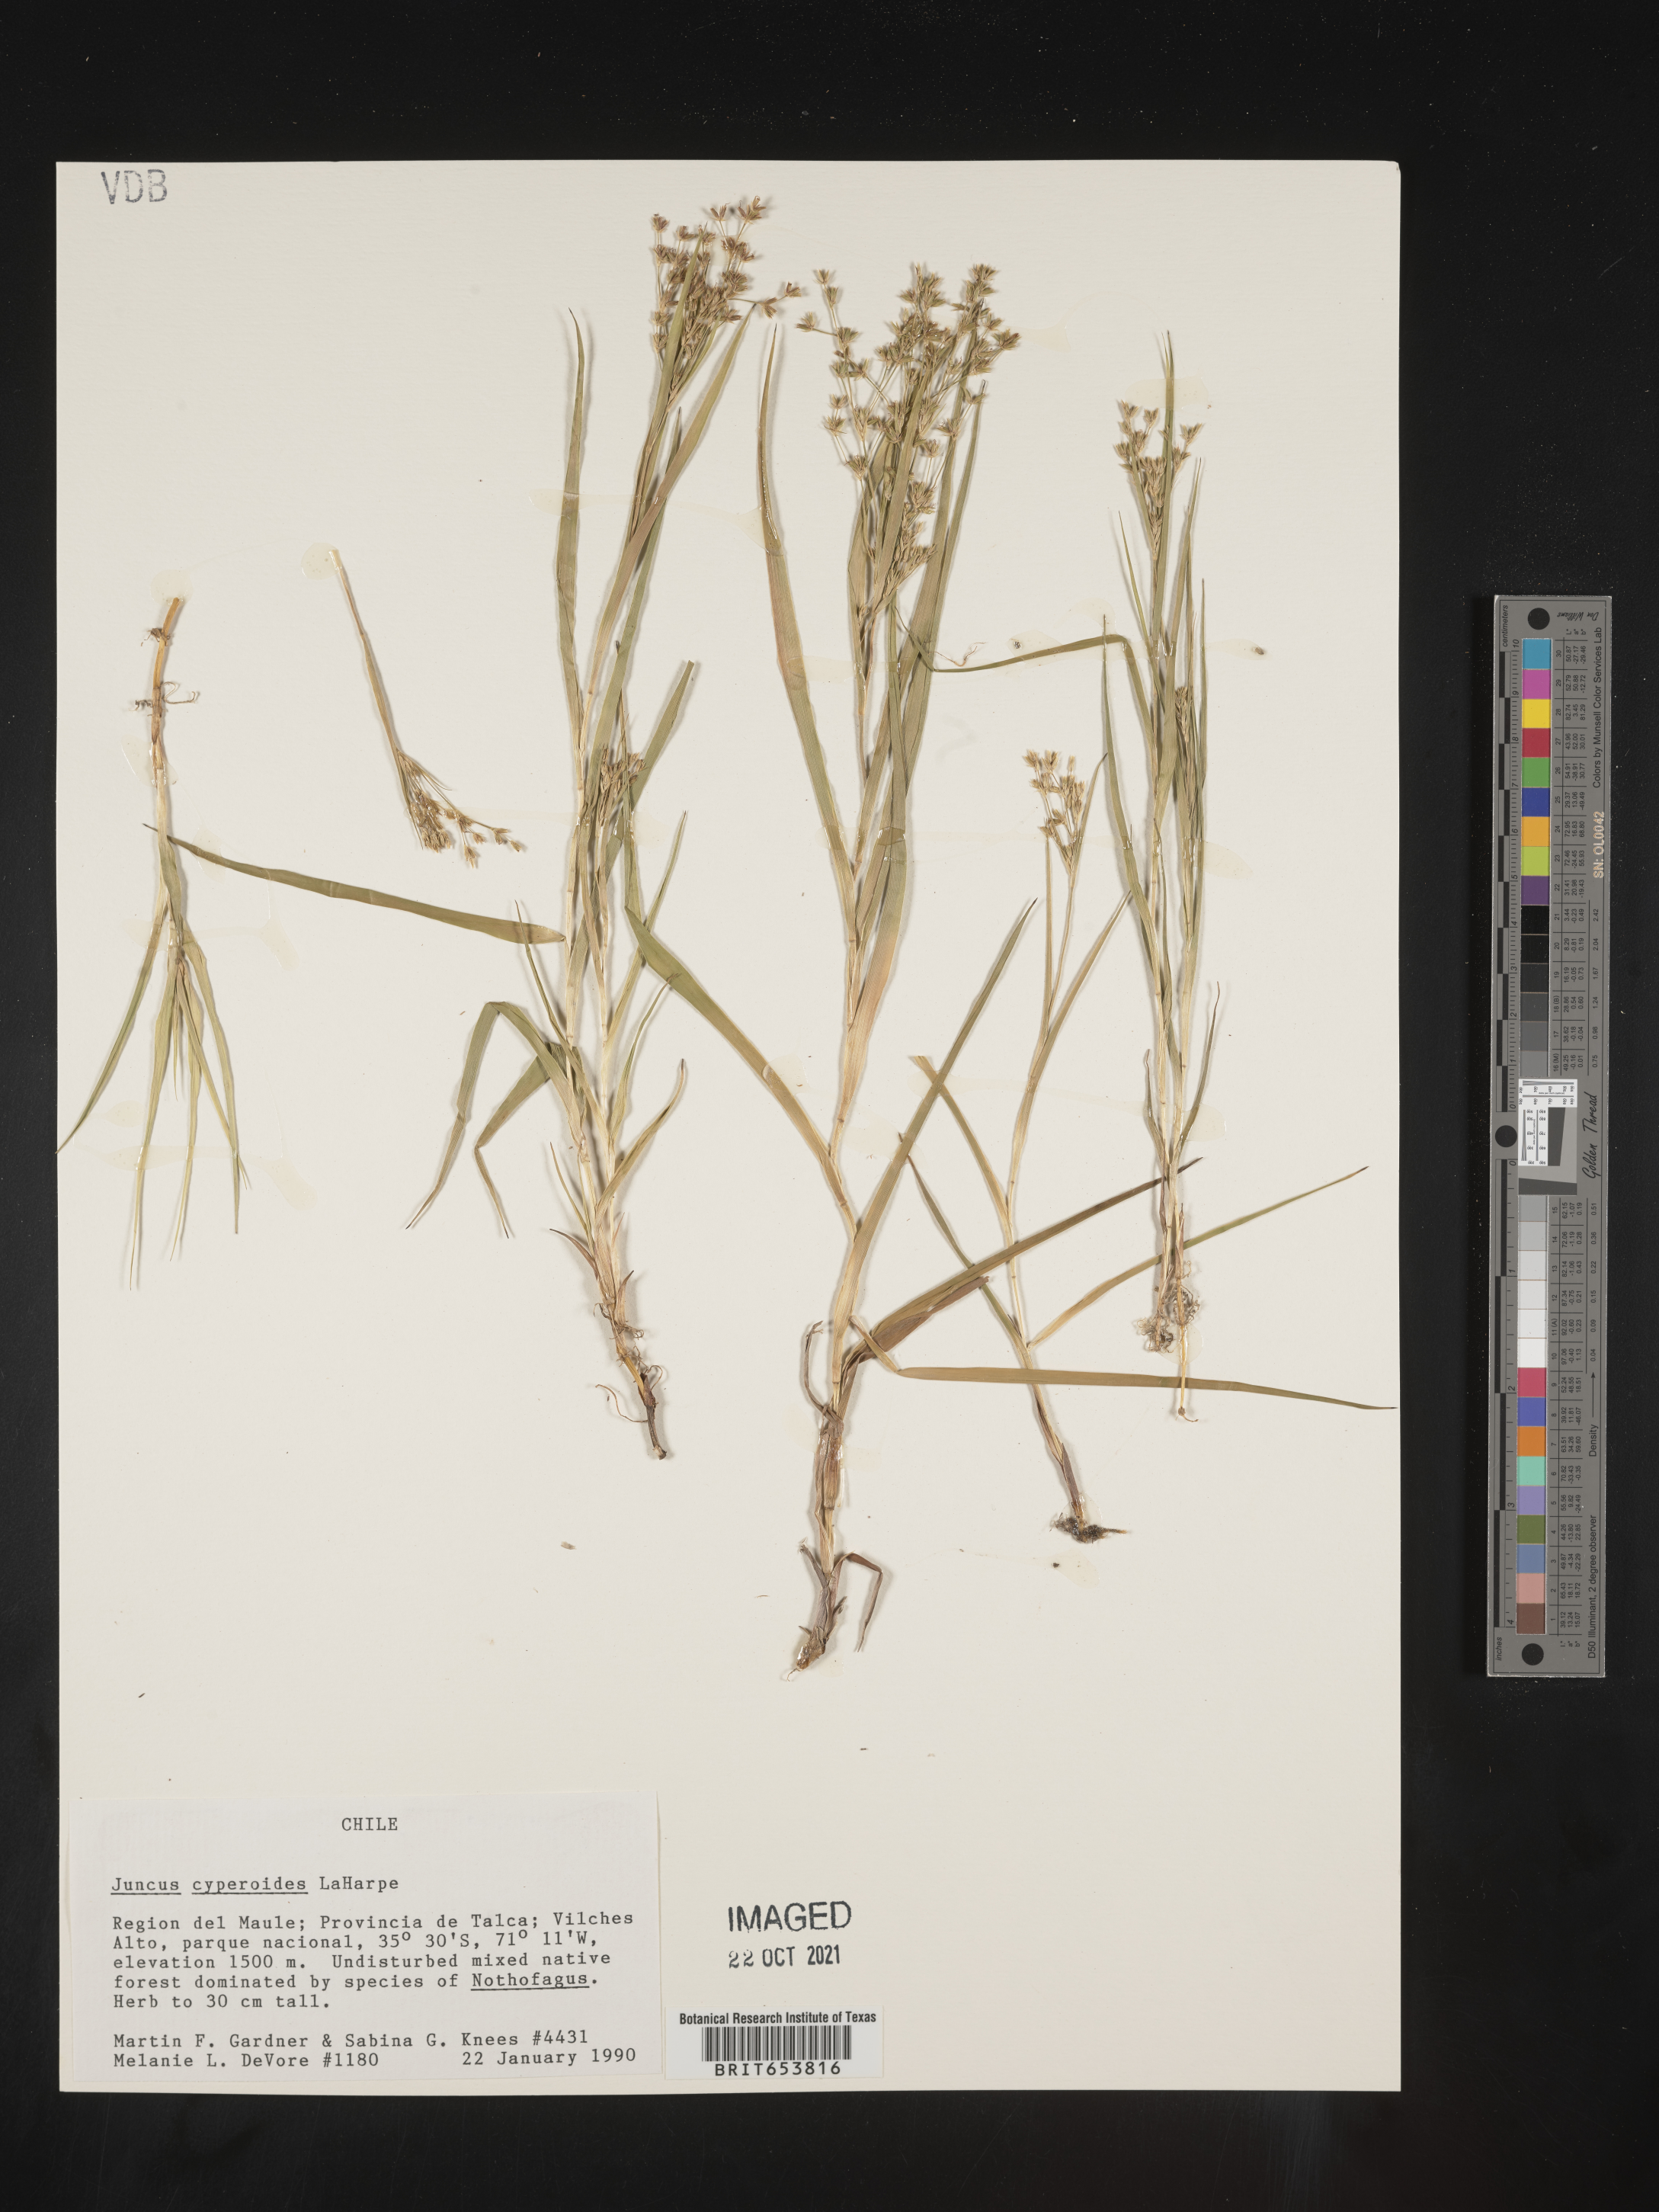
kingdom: Plantae
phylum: Tracheophyta
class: Liliopsida
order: Poales
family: Juncaceae
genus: Juncus
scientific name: Juncus
